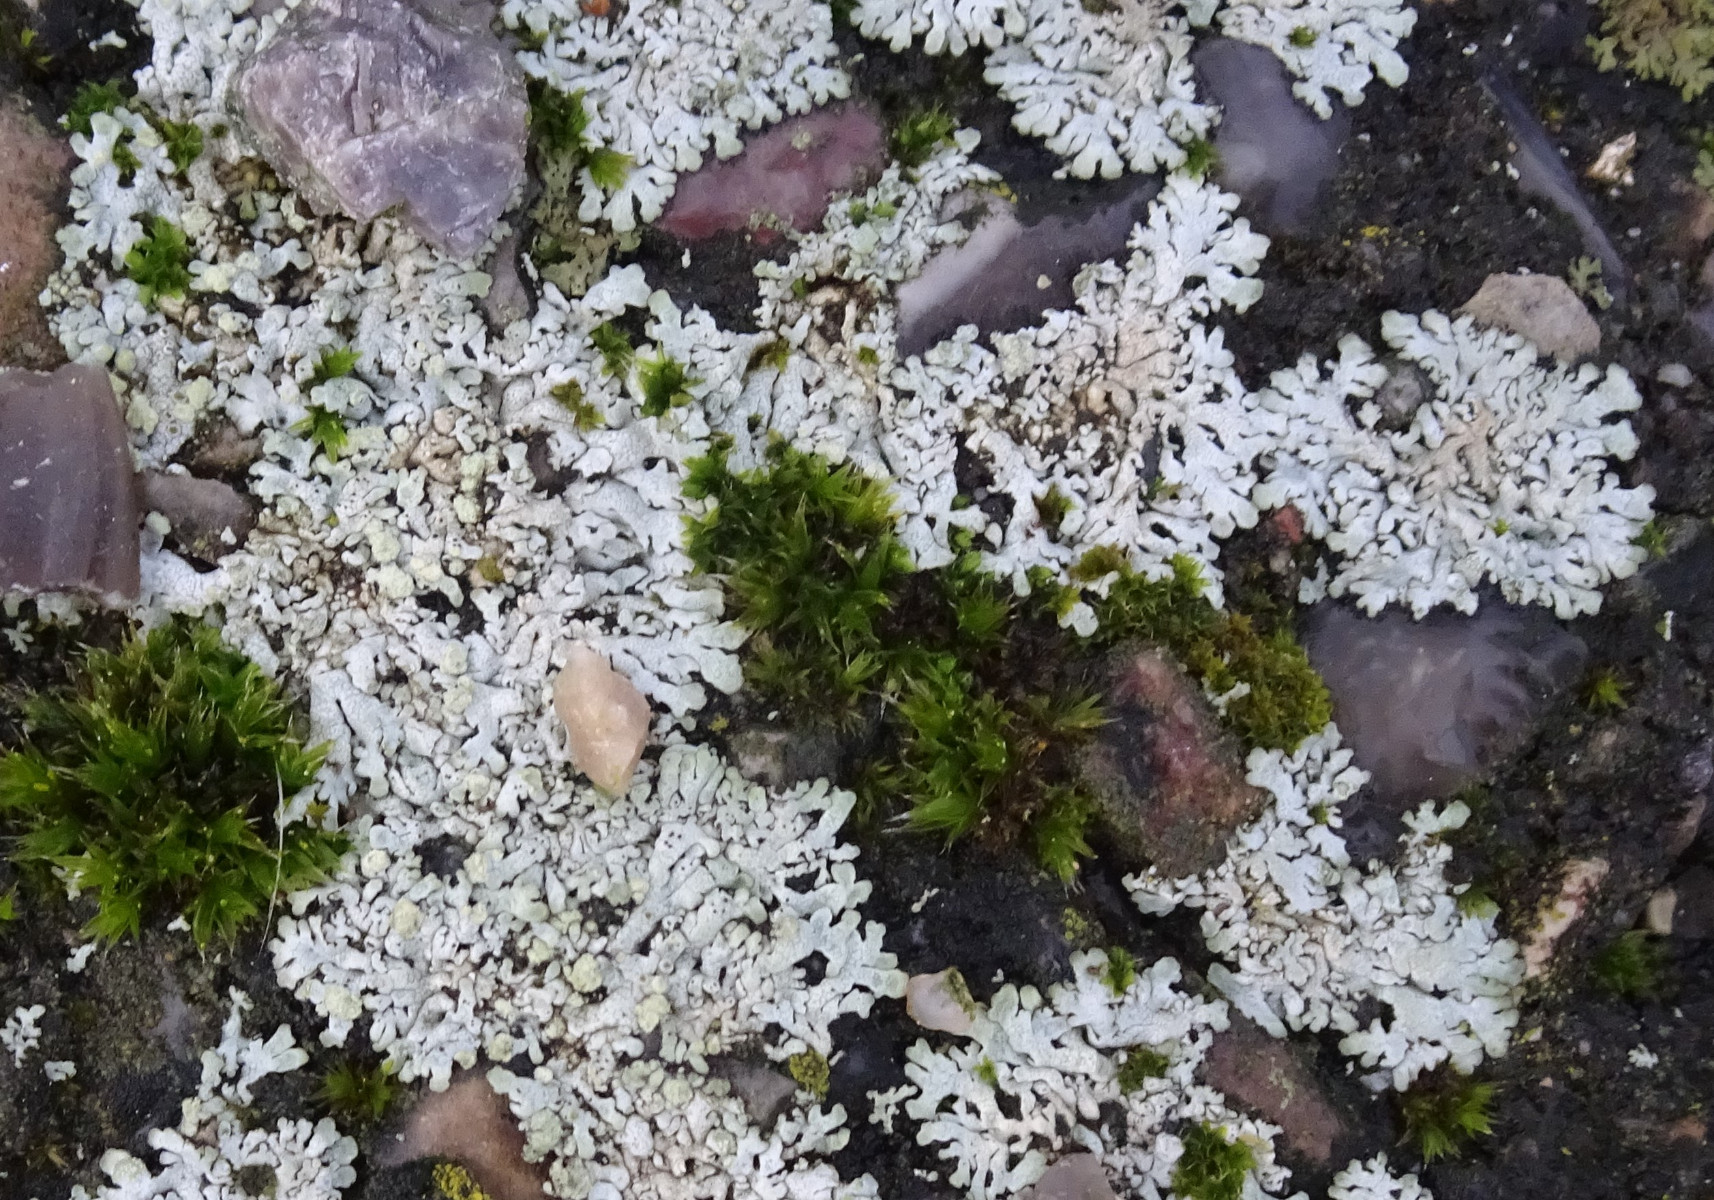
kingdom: Fungi
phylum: Ascomycota
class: Lecanoromycetes
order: Caliciales
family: Physciaceae
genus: Physcia
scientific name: Physcia caesia
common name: blågrå rosetlav
